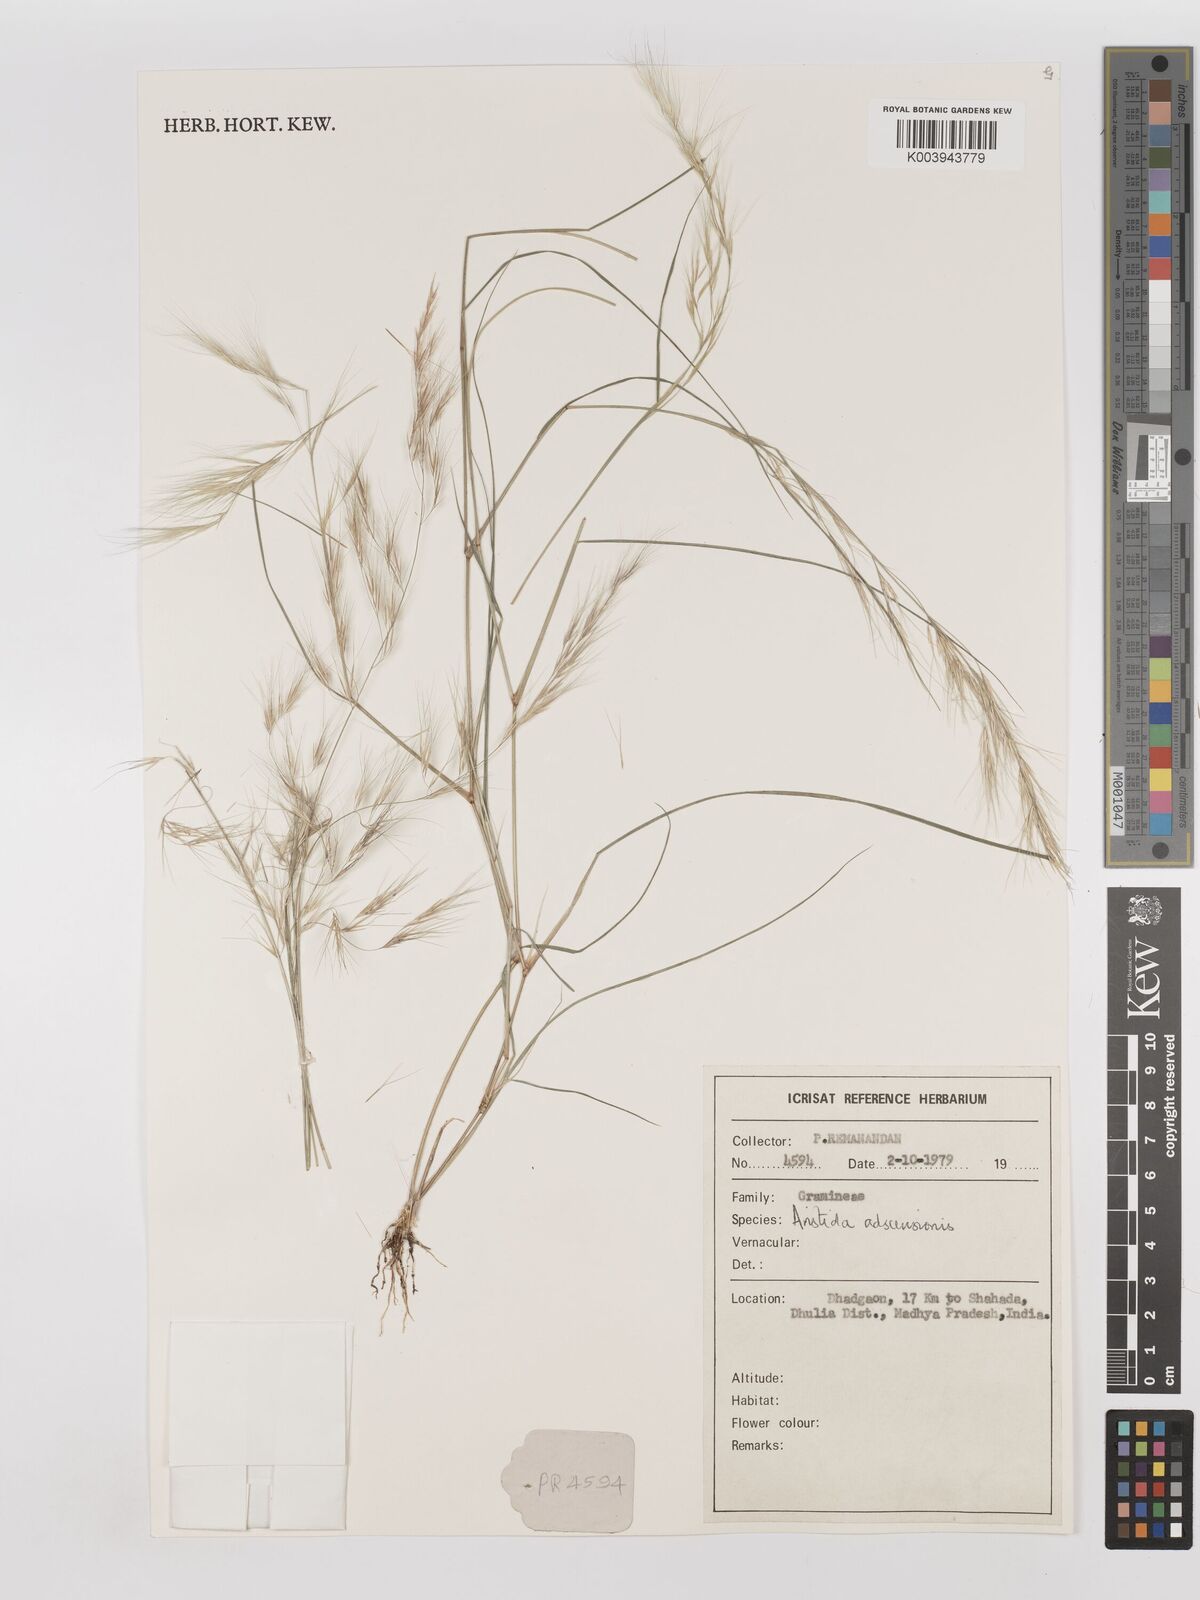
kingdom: Plantae
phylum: Tracheophyta
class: Liliopsida
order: Poales
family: Poaceae
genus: Aristida
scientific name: Aristida adscensionis
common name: Sixweeks threeawn
